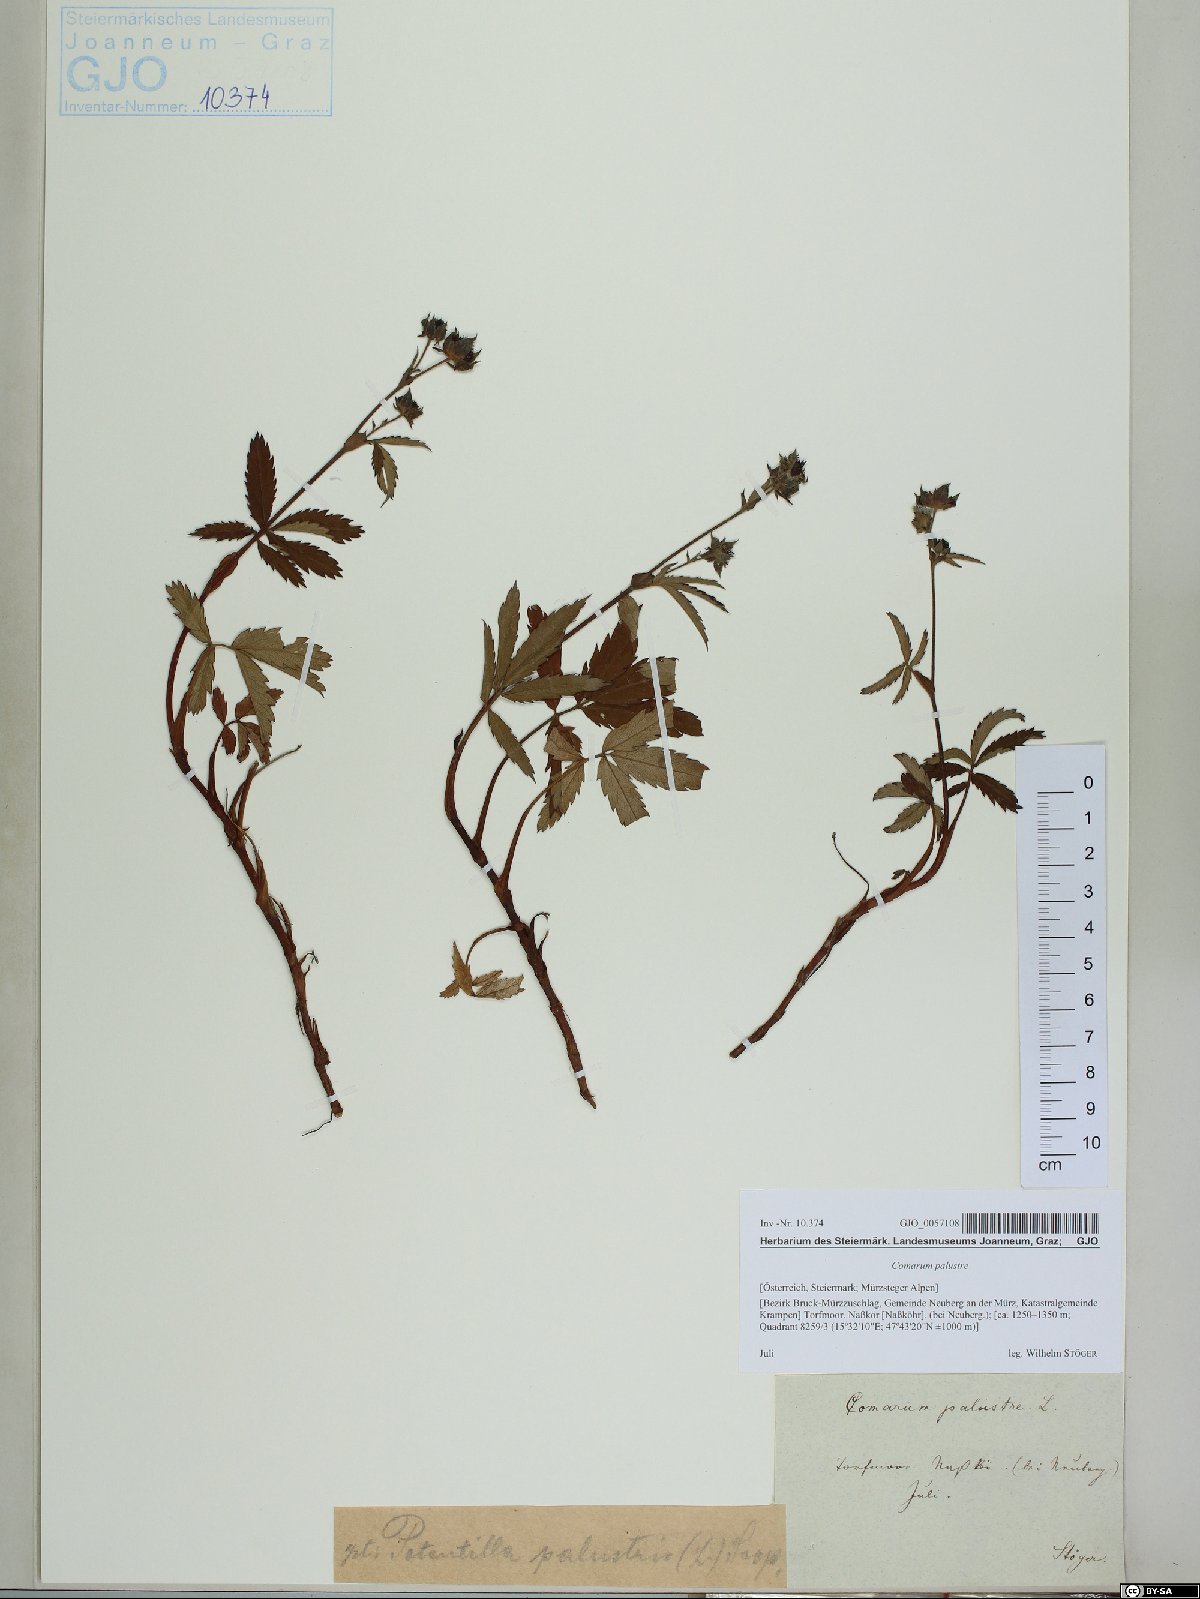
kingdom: Plantae
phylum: Tracheophyta
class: Magnoliopsida
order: Rosales
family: Rosaceae
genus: Comarum
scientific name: Comarum palustre
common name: Marsh cinquefoil
